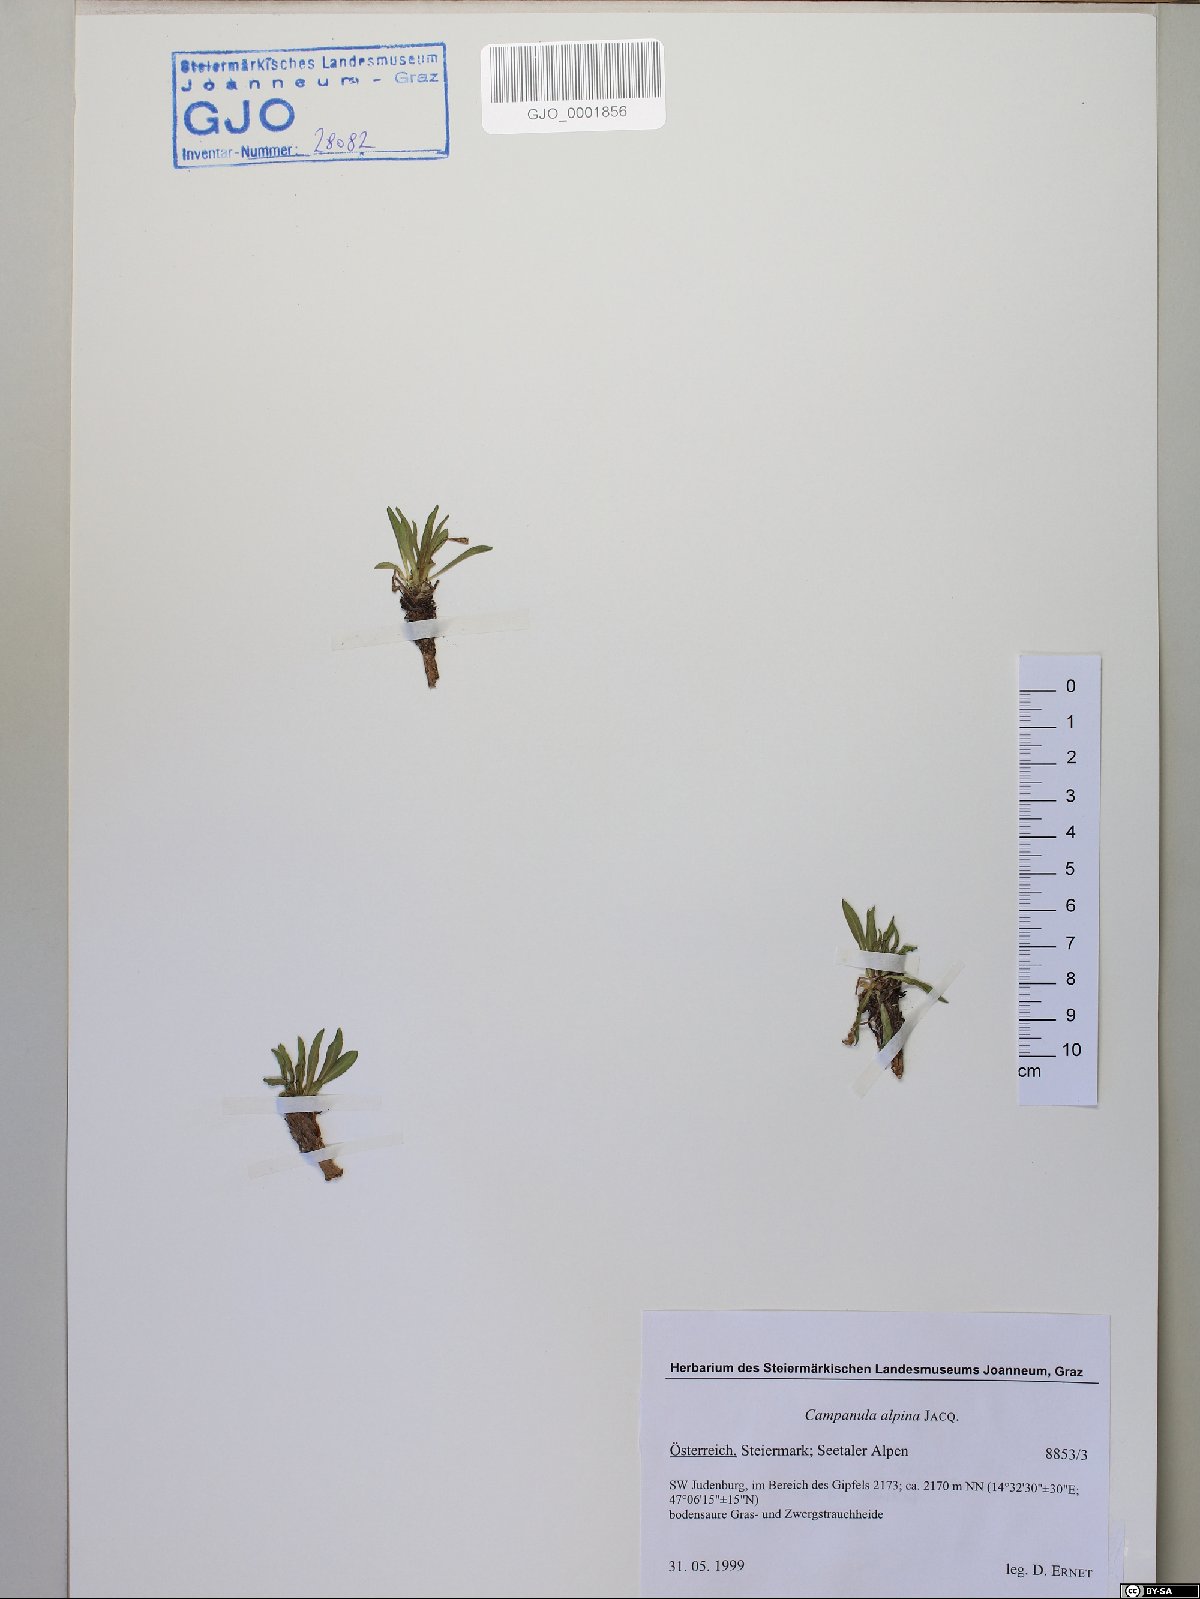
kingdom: Plantae
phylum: Tracheophyta
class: Magnoliopsida
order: Asterales
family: Campanulaceae
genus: Campanula
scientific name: Campanula alpina
